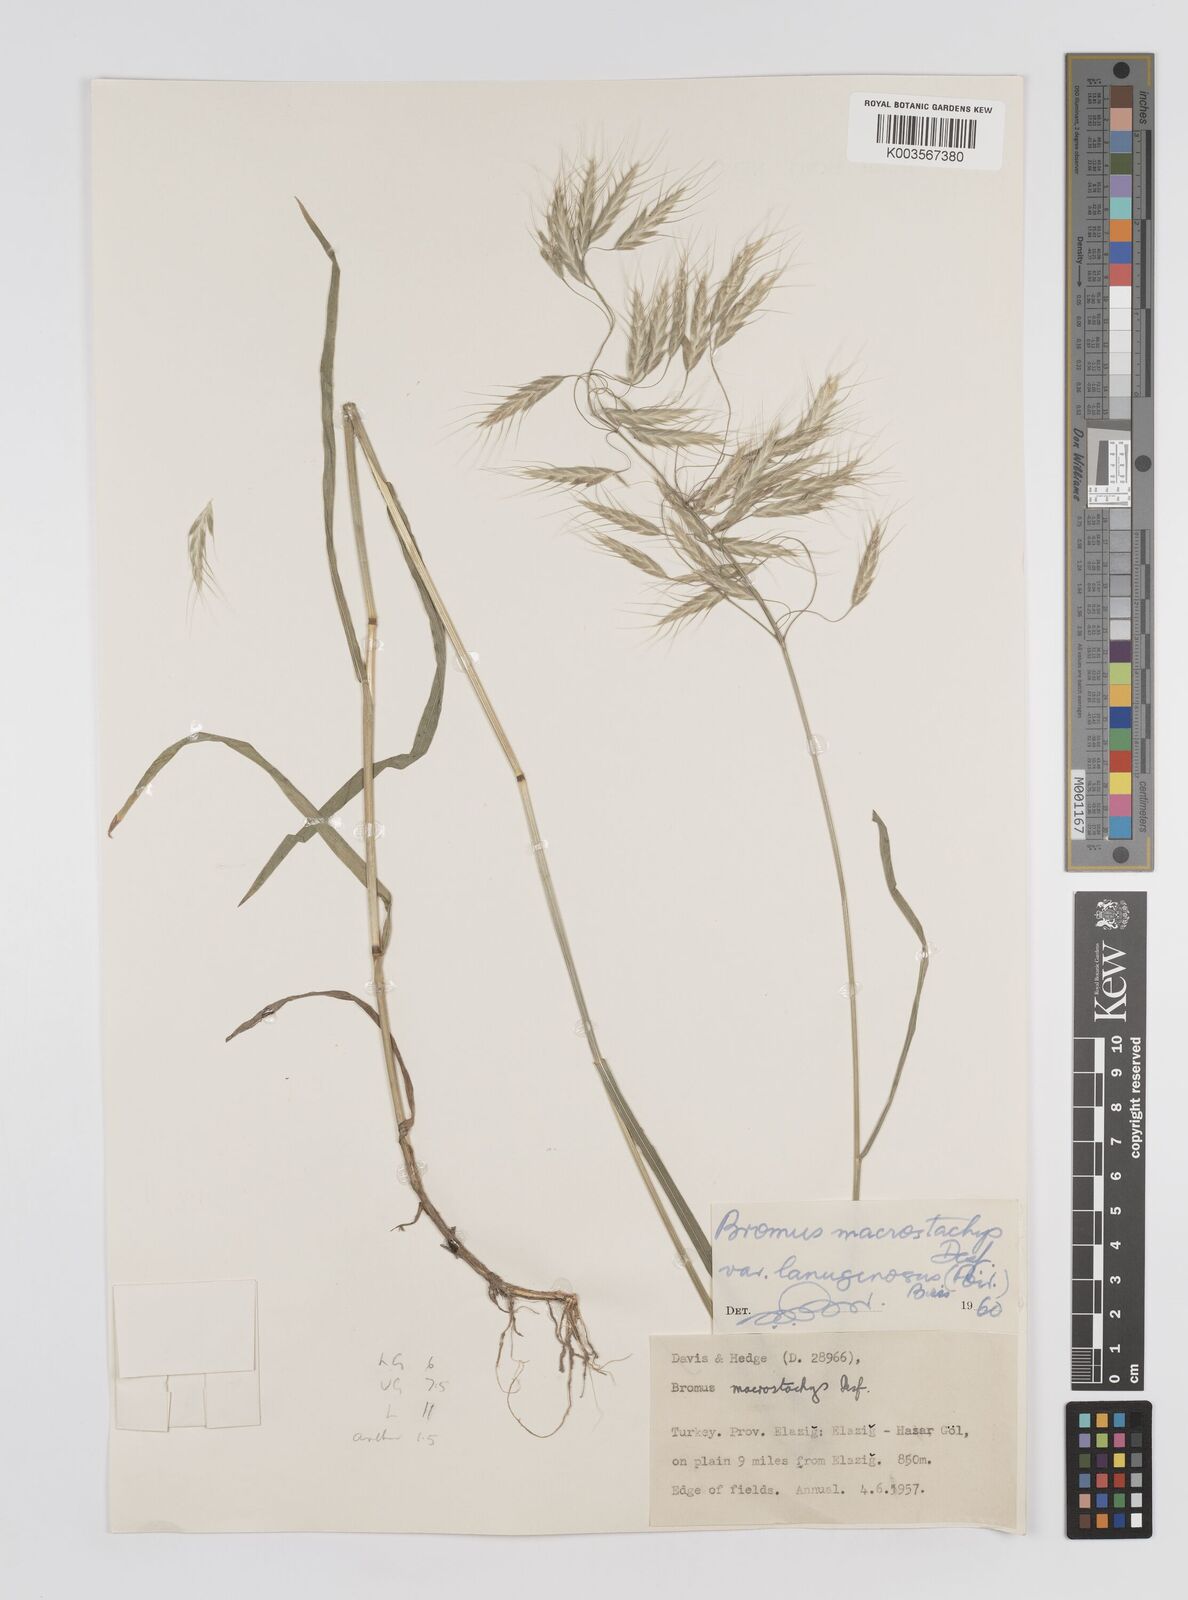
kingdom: Plantae
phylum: Tracheophyta
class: Liliopsida
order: Poales
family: Poaceae
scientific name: Poaceae
